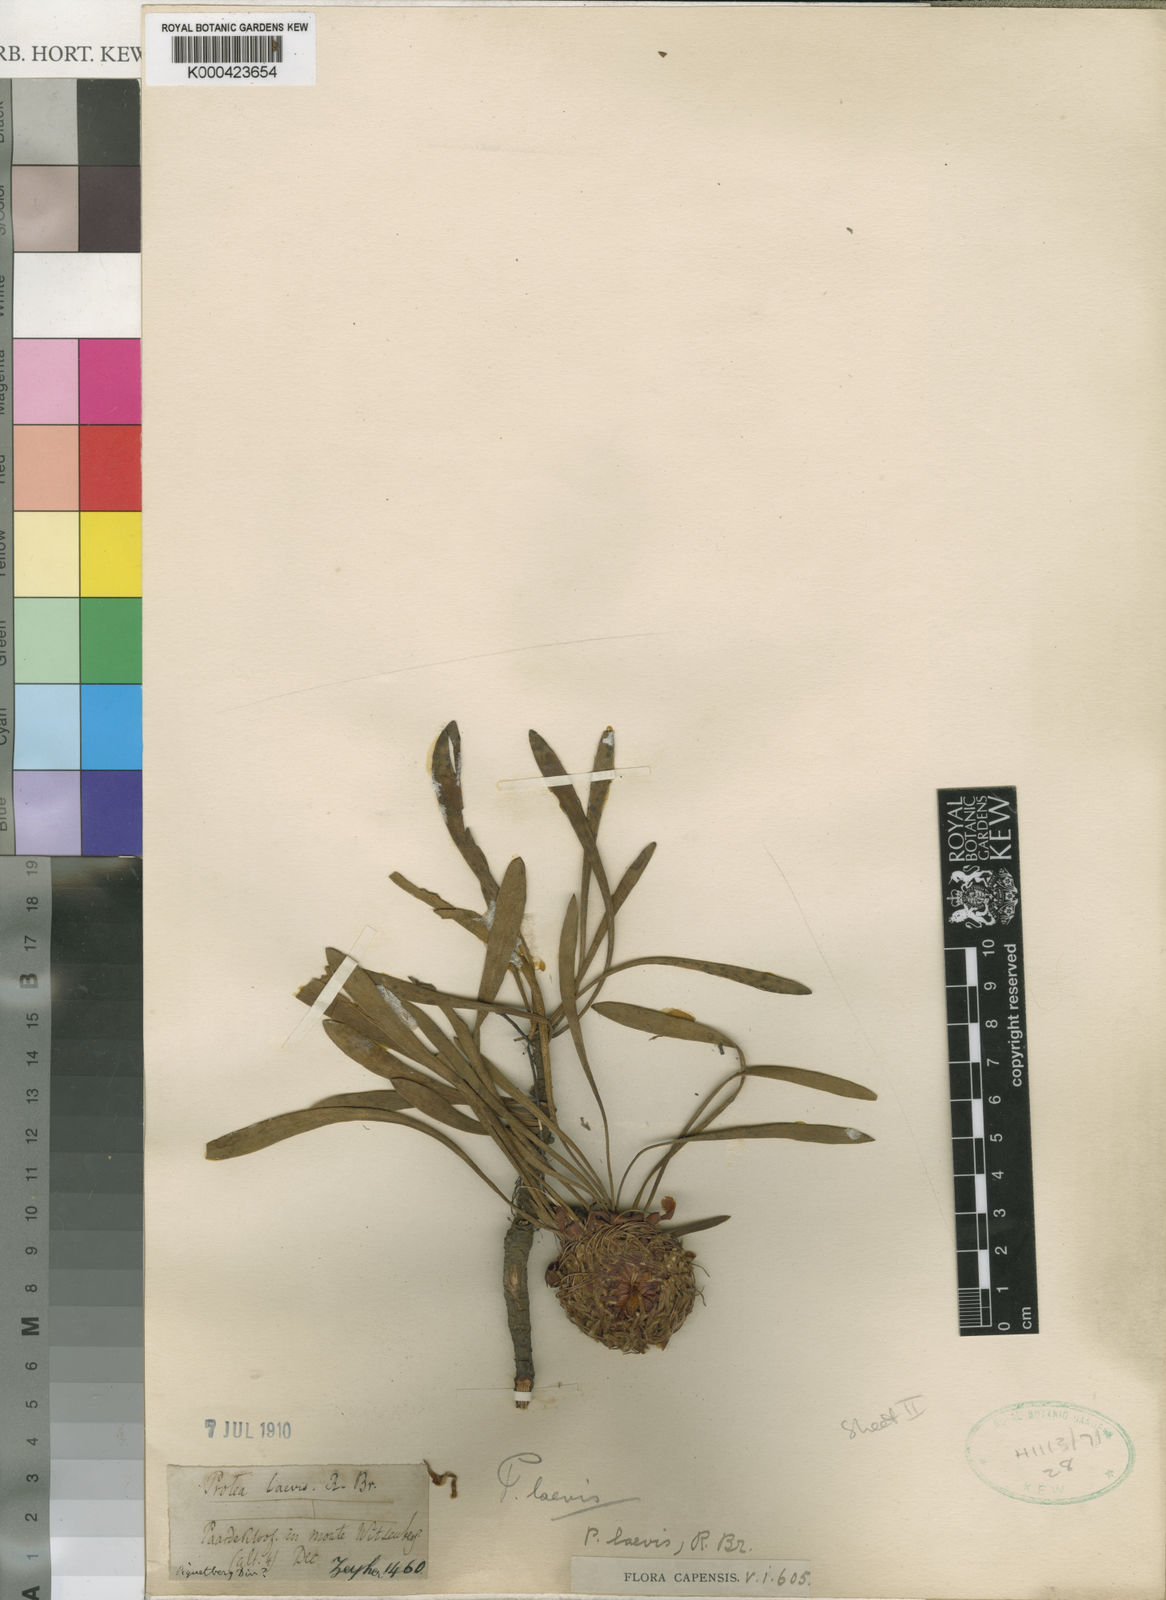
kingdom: Plantae
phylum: Tracheophyta
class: Magnoliopsida
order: Proteales
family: Proteaceae
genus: Protea
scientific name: Protea laevis
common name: Smooth-leaf sugarbush
